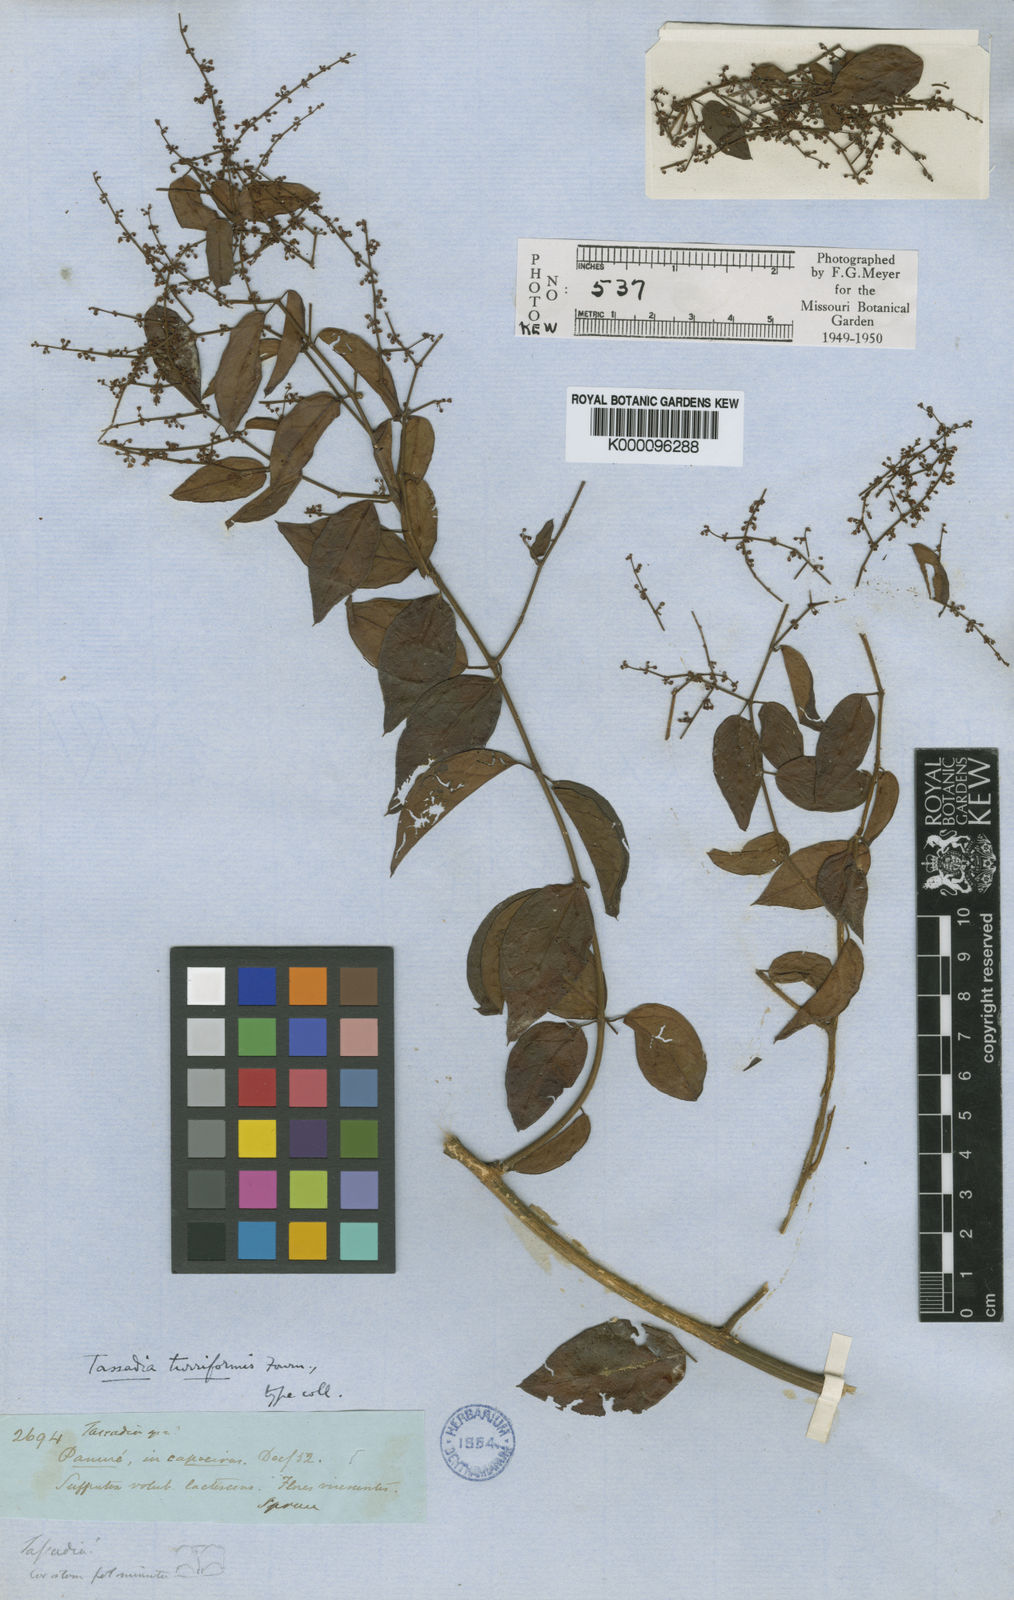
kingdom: Plantae
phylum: Tracheophyta
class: Magnoliopsida
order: Gentianales
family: Apocynaceae
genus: Tassadia
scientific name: Tassadia obovata
